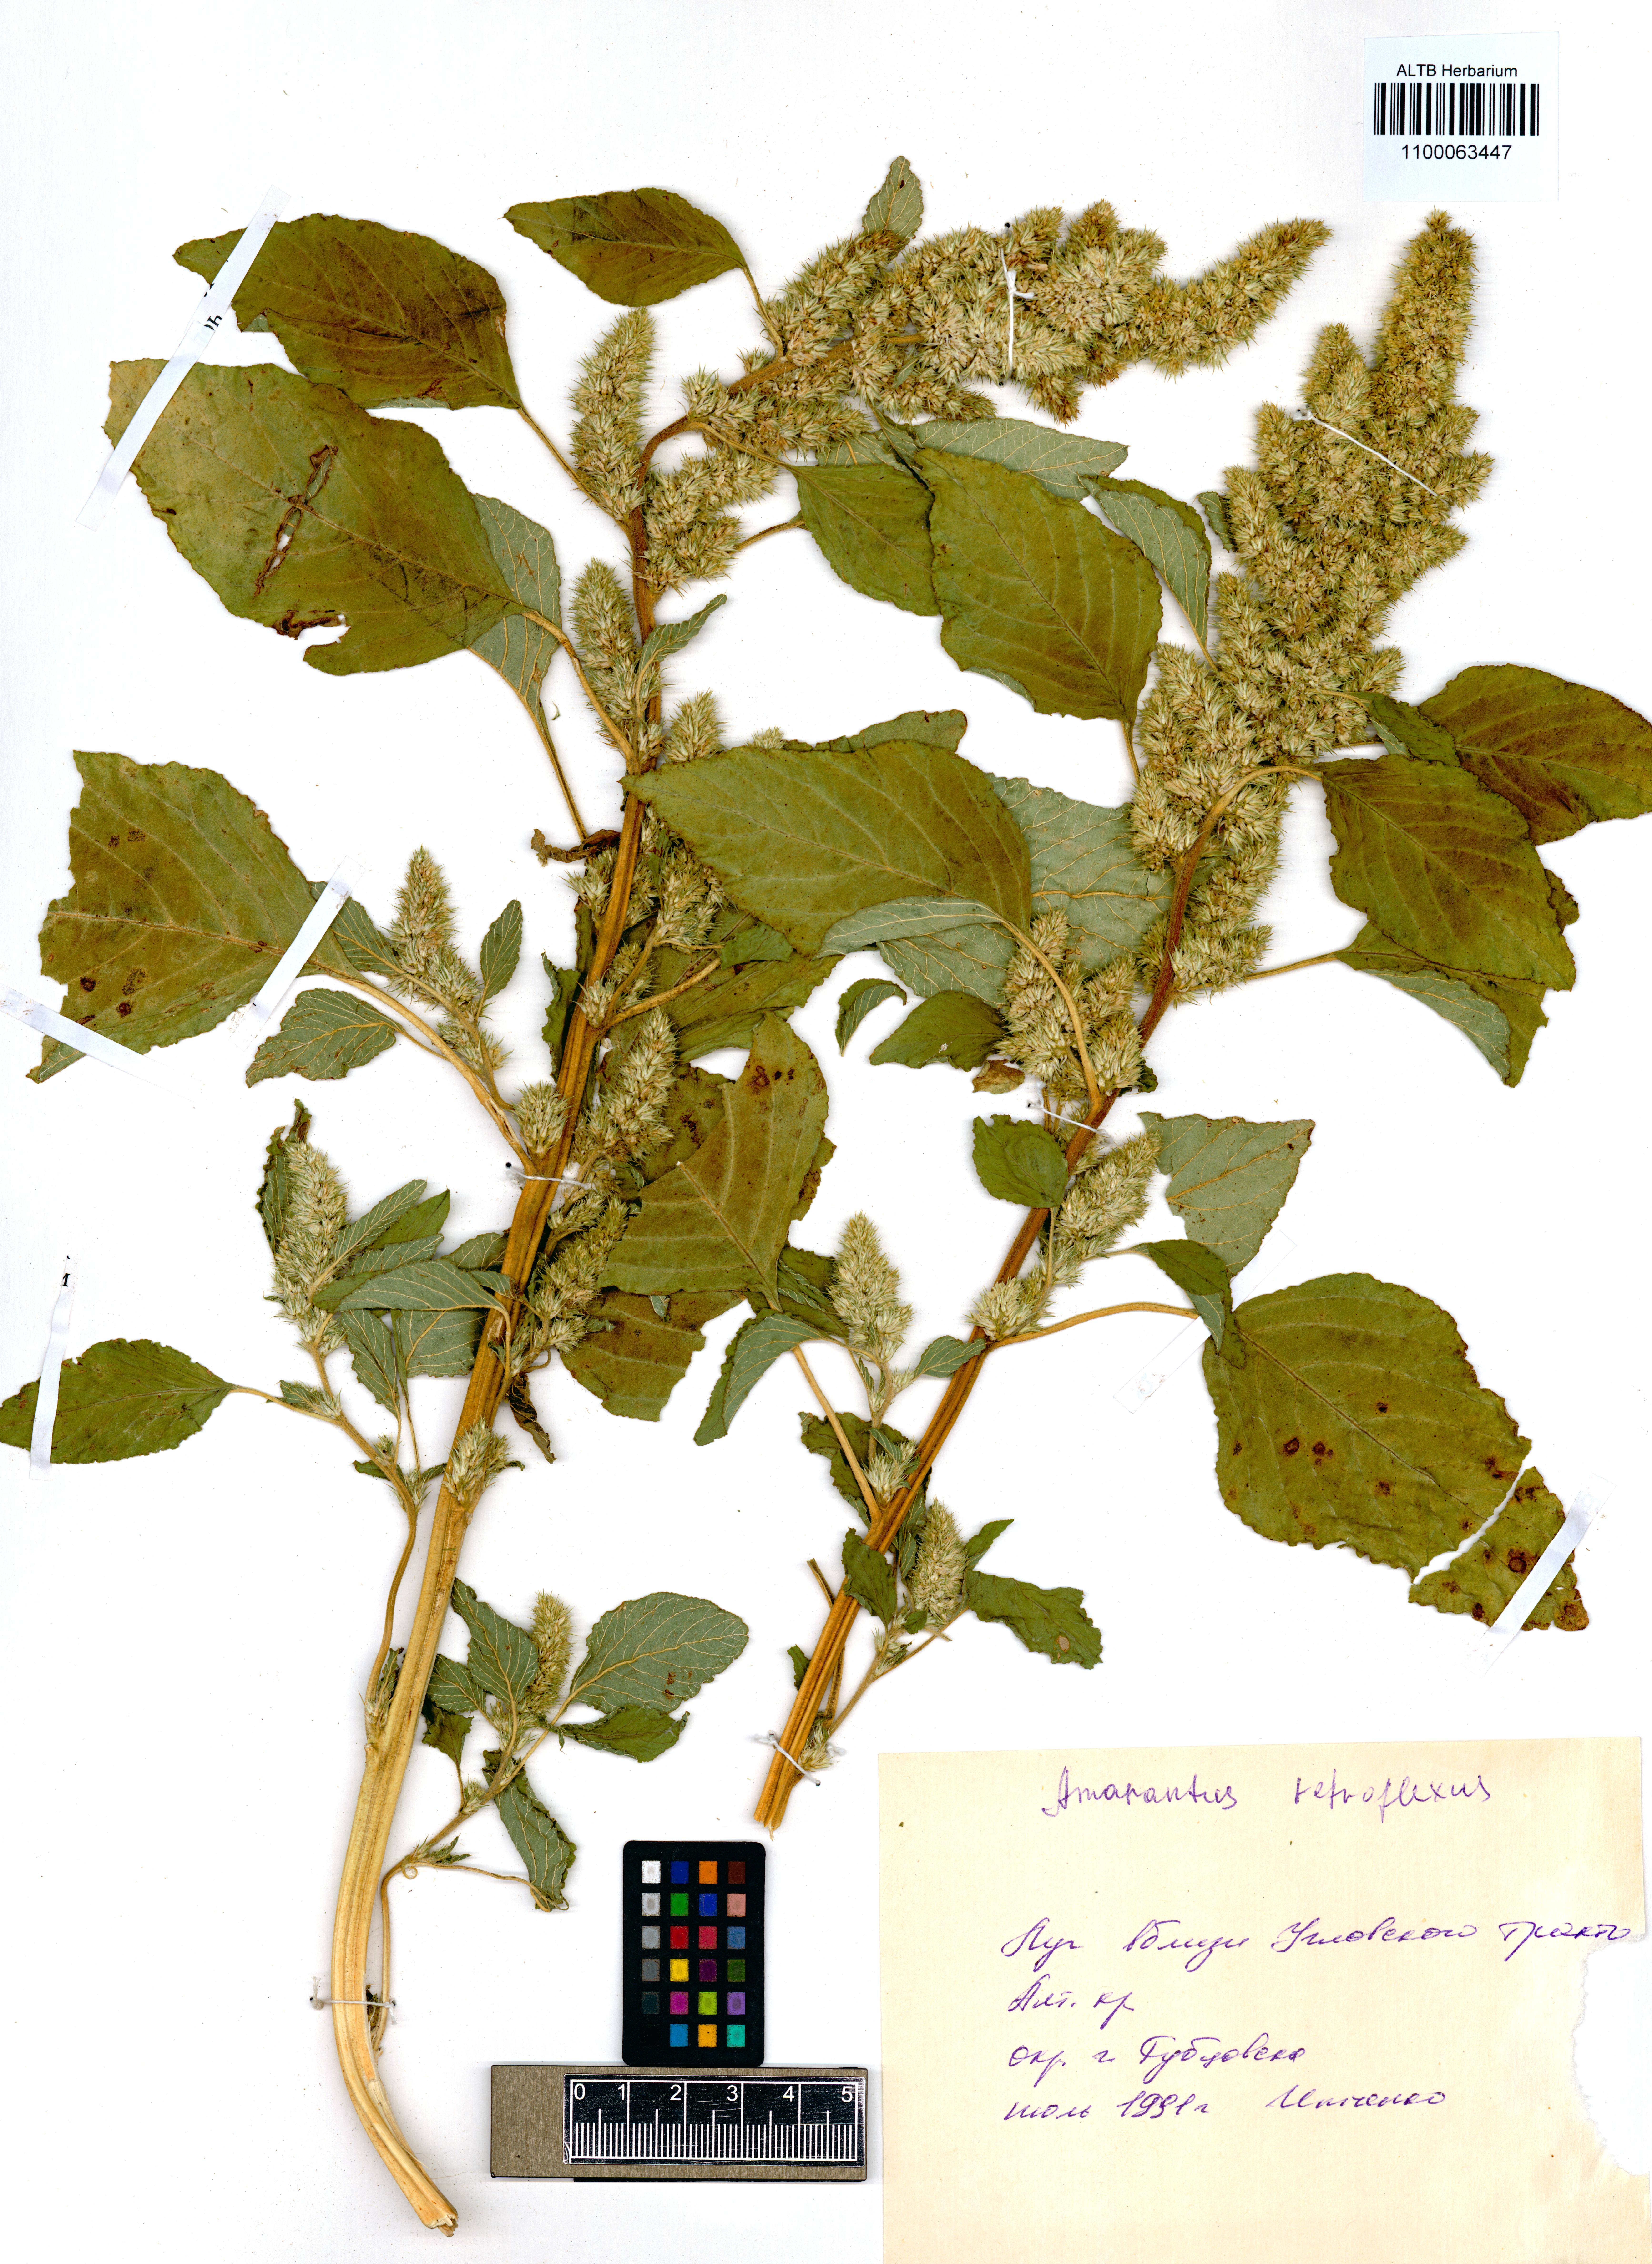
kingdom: Plantae
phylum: Tracheophyta
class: Magnoliopsida
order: Caryophyllales
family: Amaranthaceae
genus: Amaranthus
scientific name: Amaranthus retroflexus
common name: Redroot amaranth
